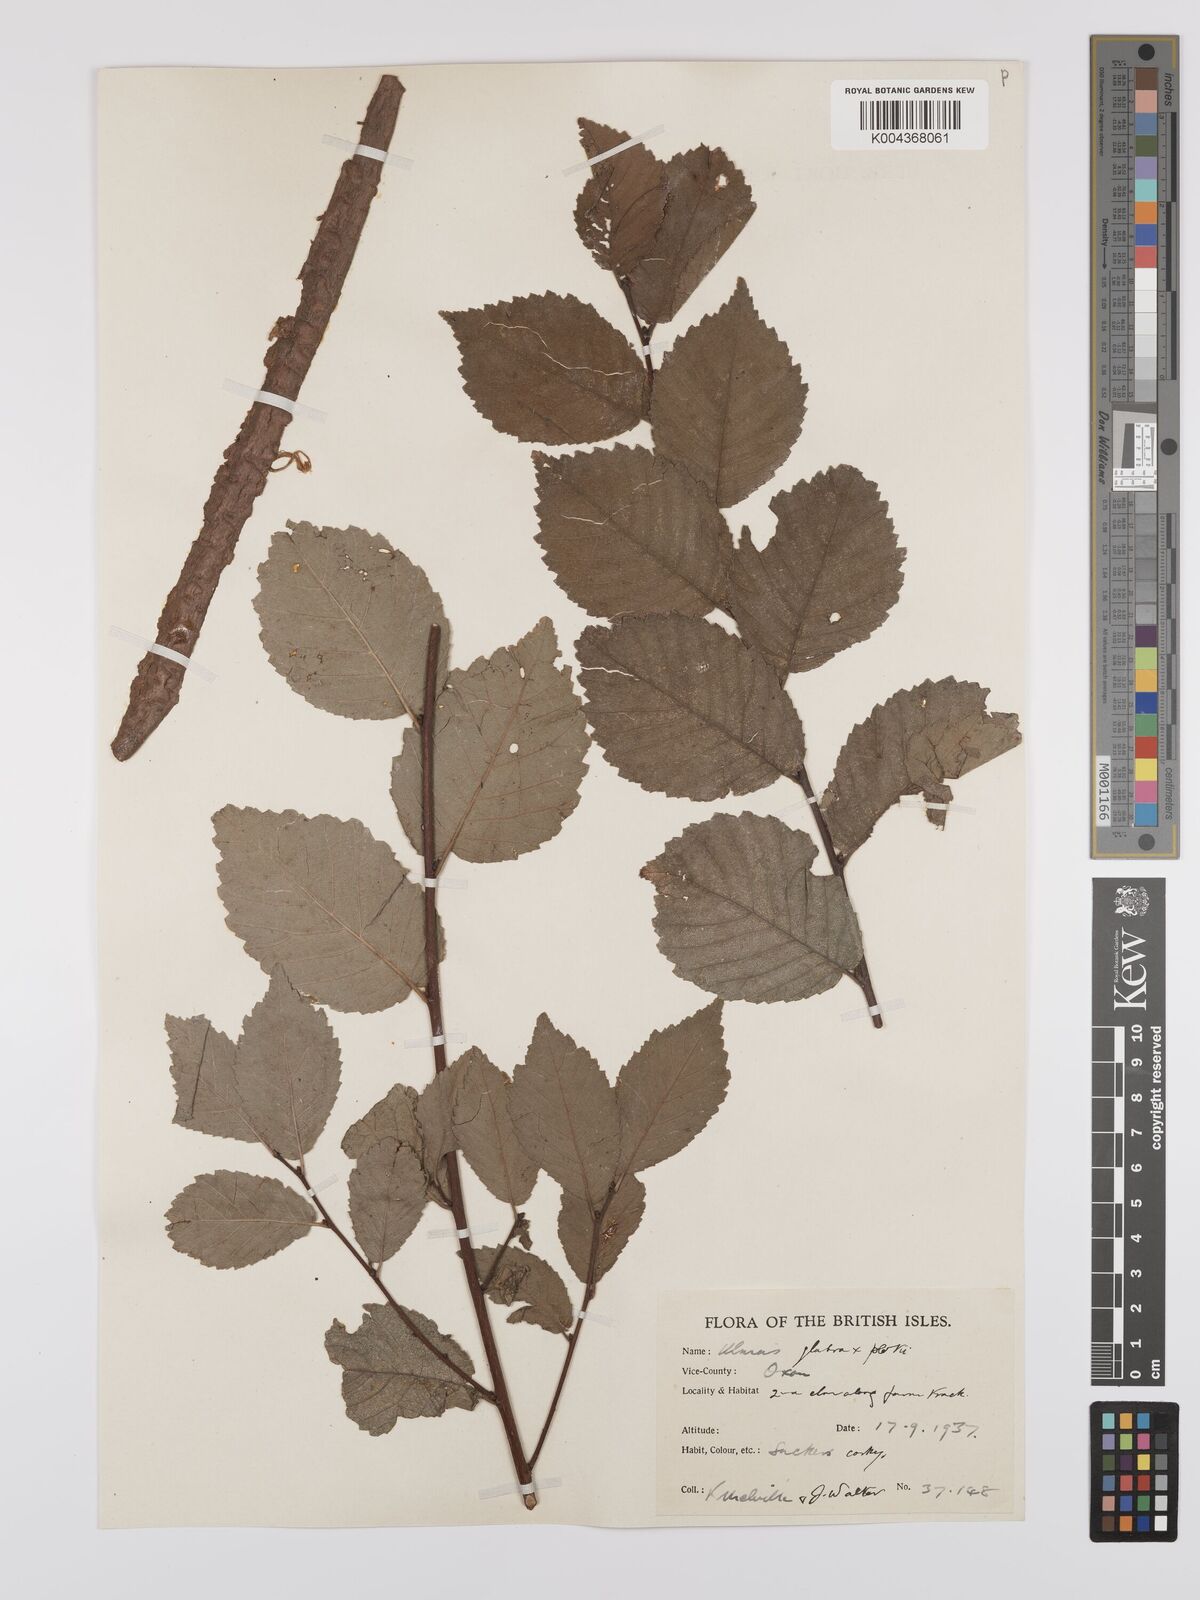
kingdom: Plantae
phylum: Tracheophyta
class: Magnoliopsida
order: Rosales
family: Ulmaceae
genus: Ulmus
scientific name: Ulmus
